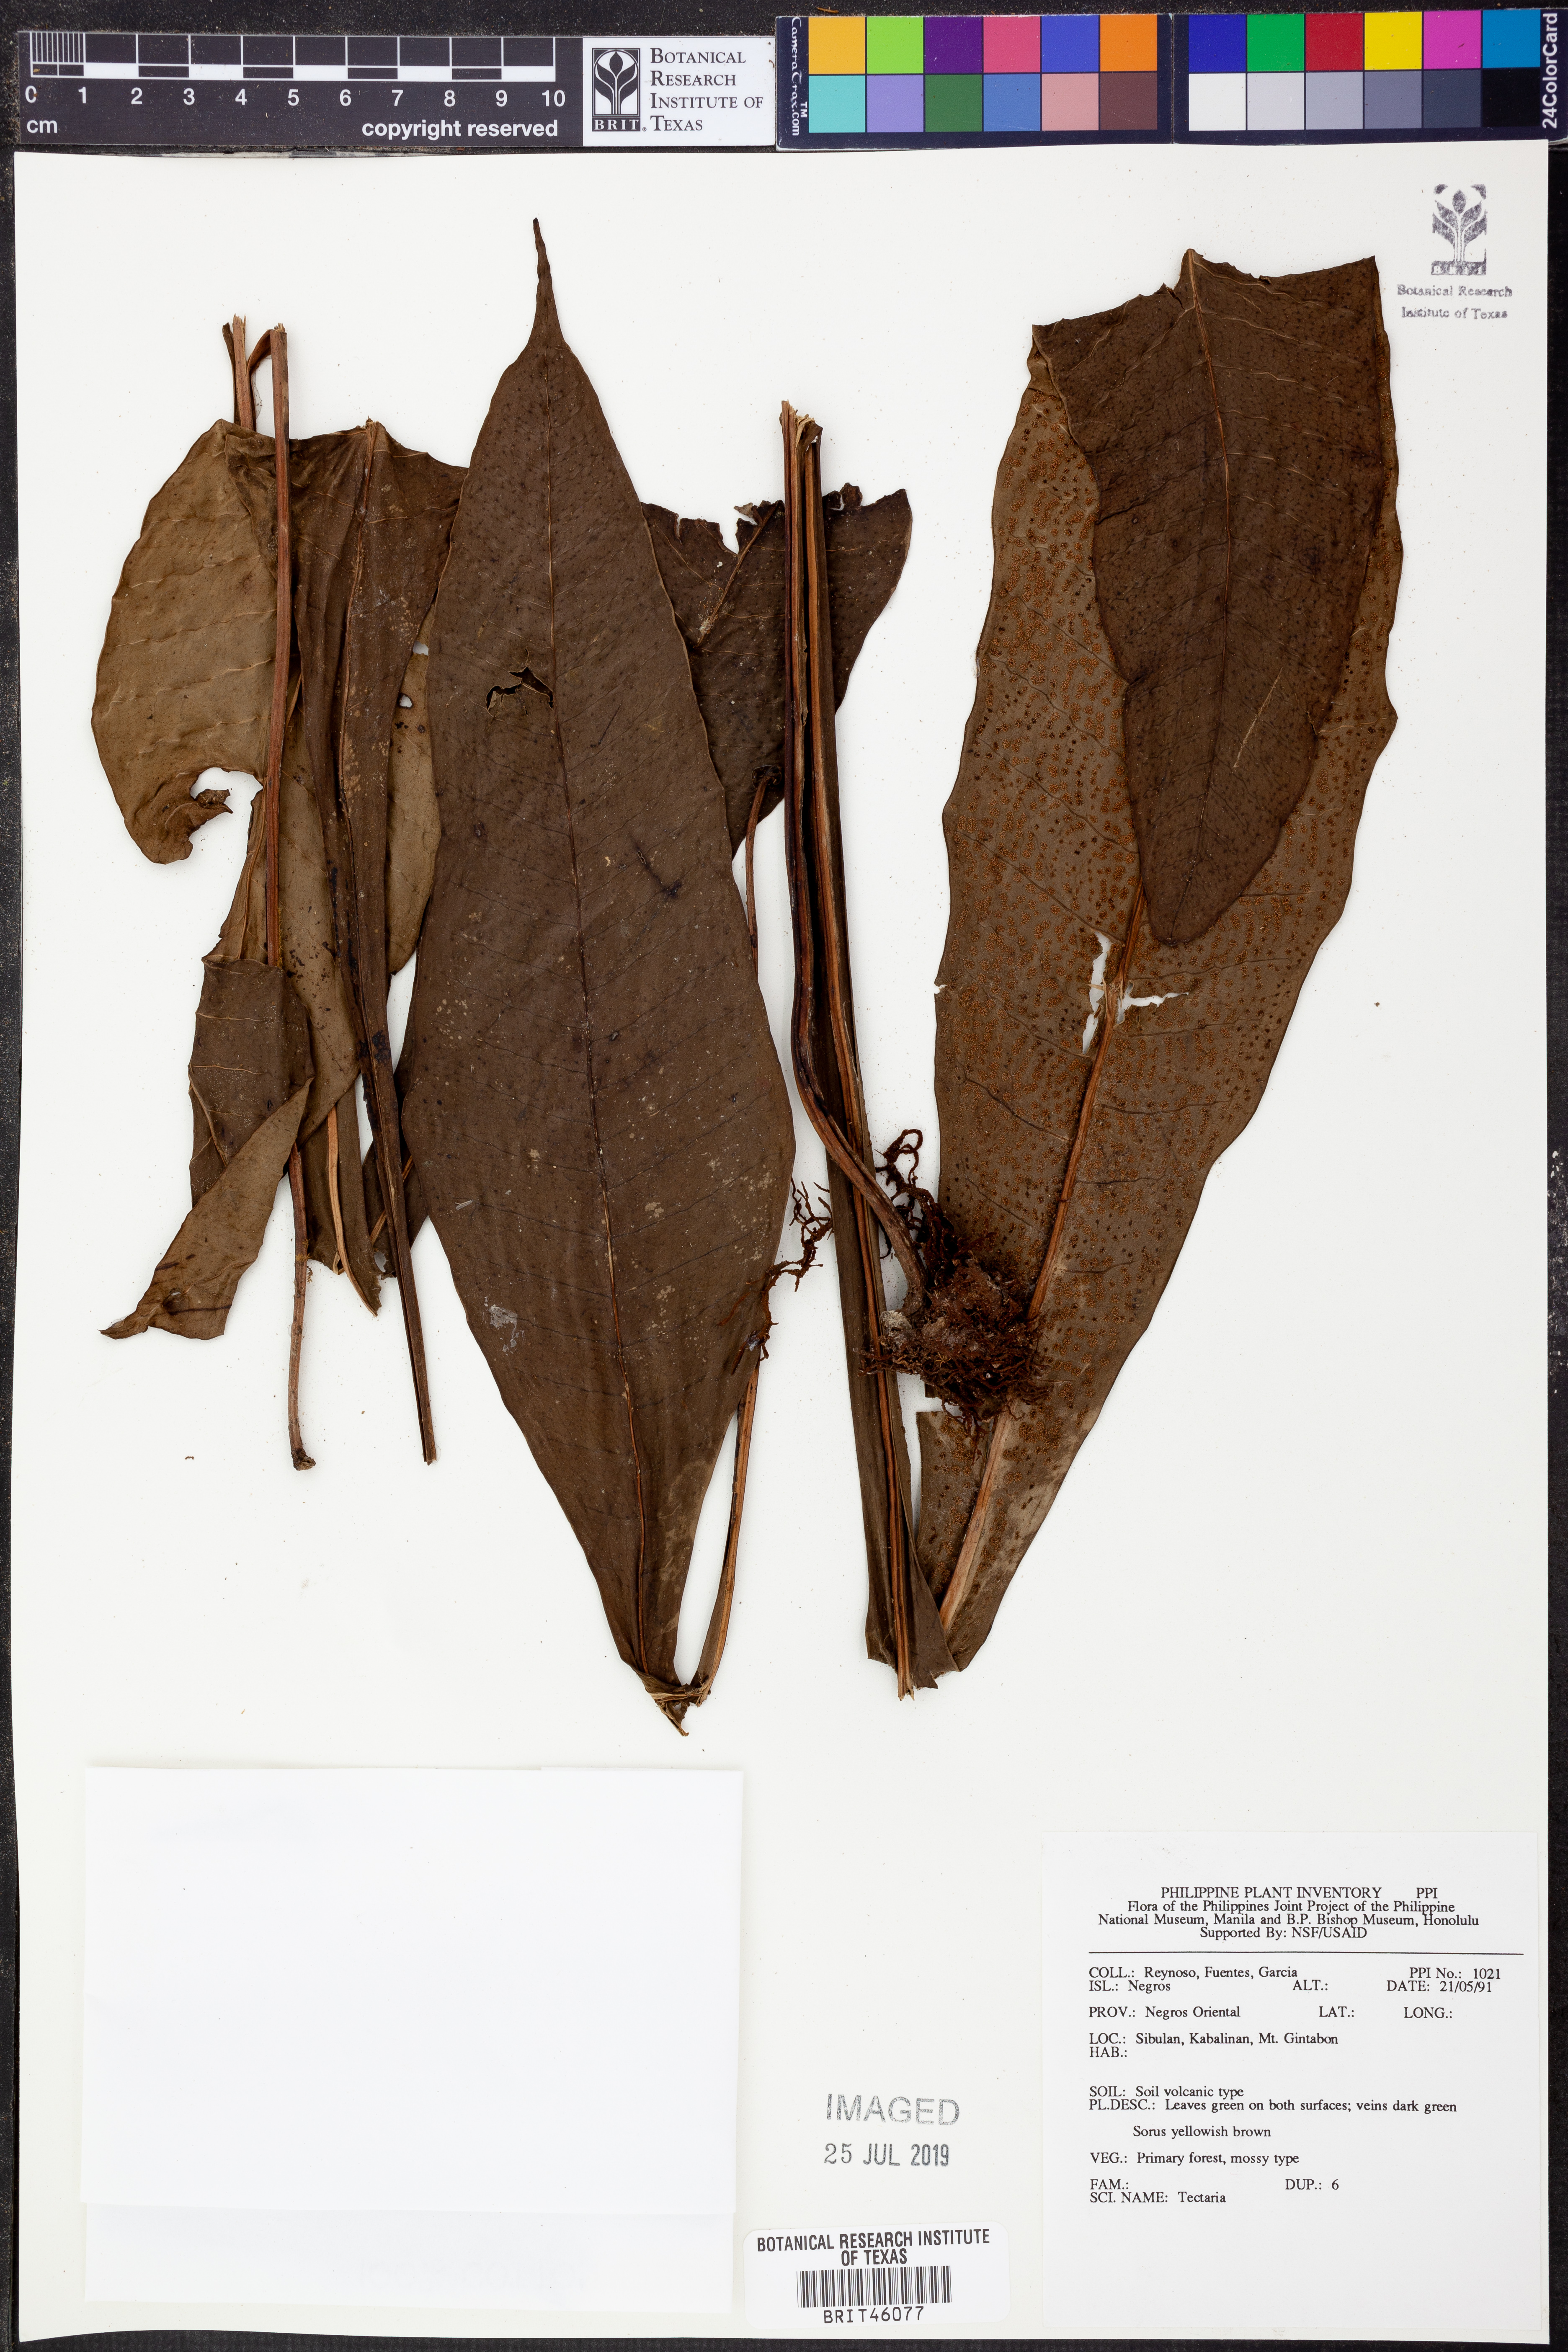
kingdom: Plantae
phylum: Tracheophyta
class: Polypodiopsida
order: Polypodiales
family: Tectariaceae
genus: Tectaria
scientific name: Tectaria
